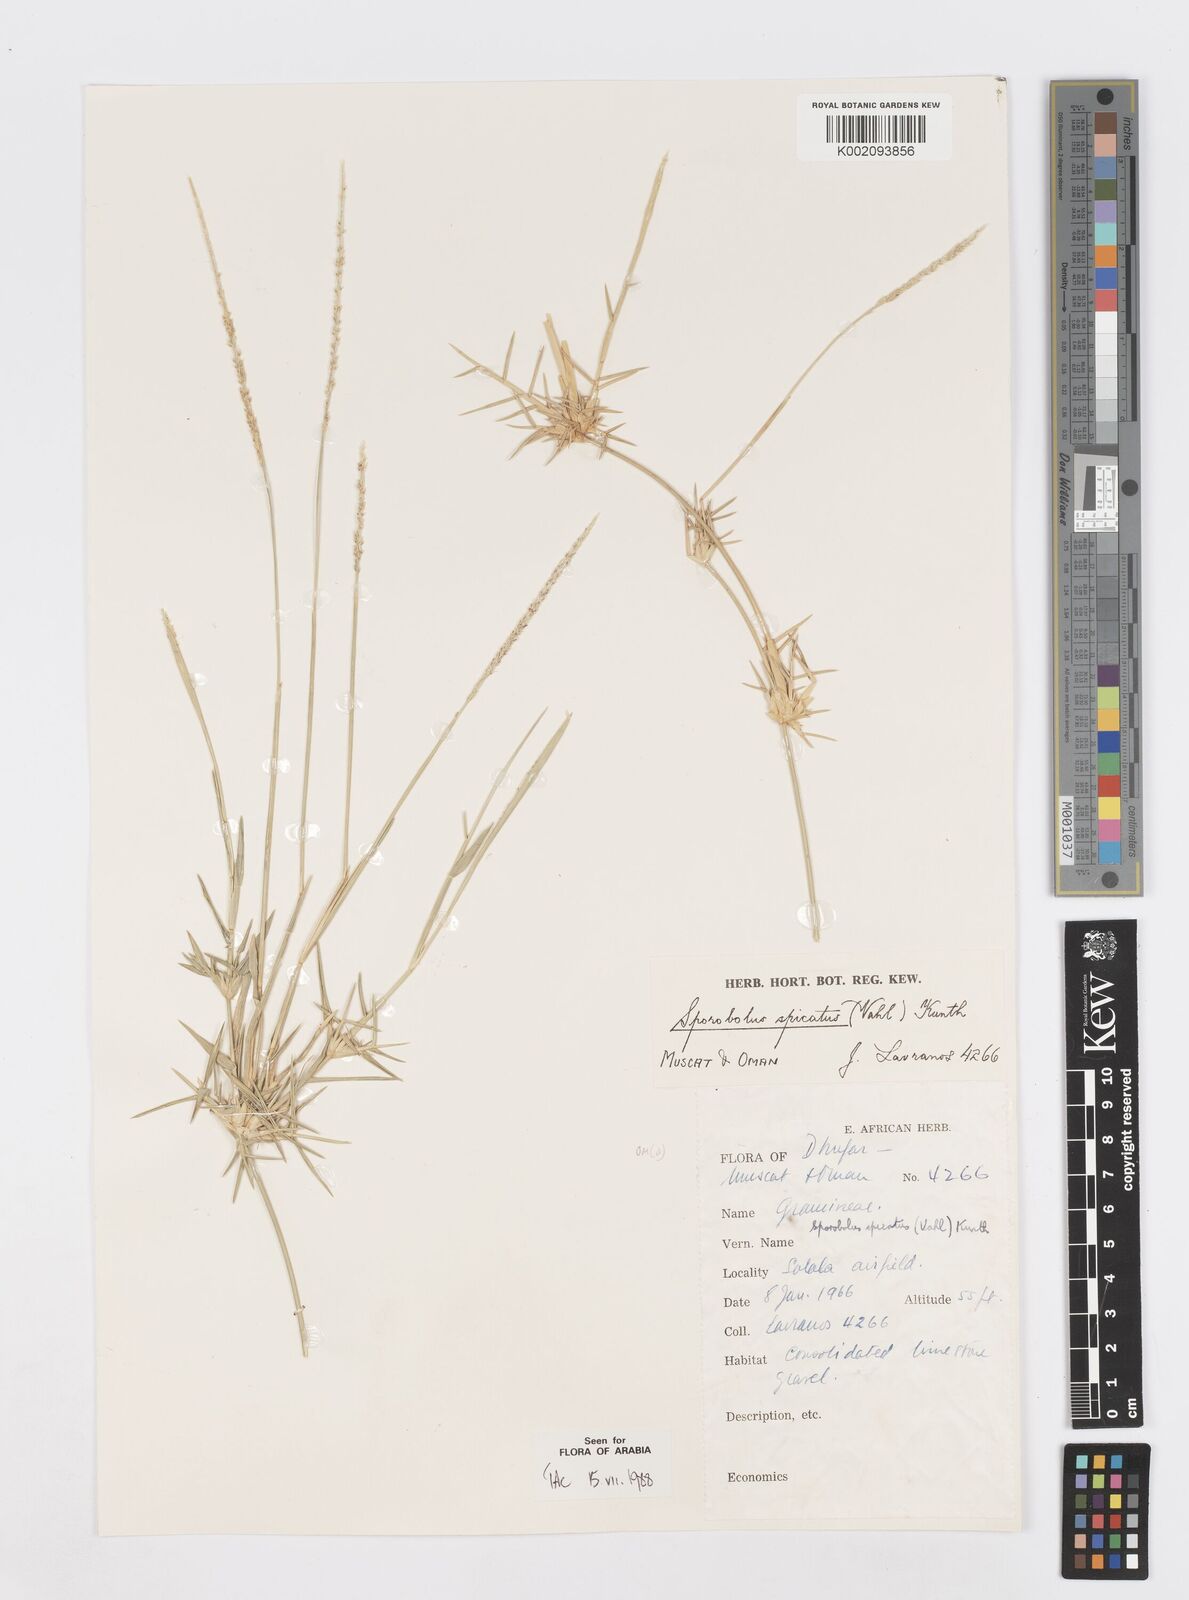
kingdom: Plantae
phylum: Tracheophyta
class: Liliopsida
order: Poales
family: Poaceae
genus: Sporobolus
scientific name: Sporobolus spicatus
